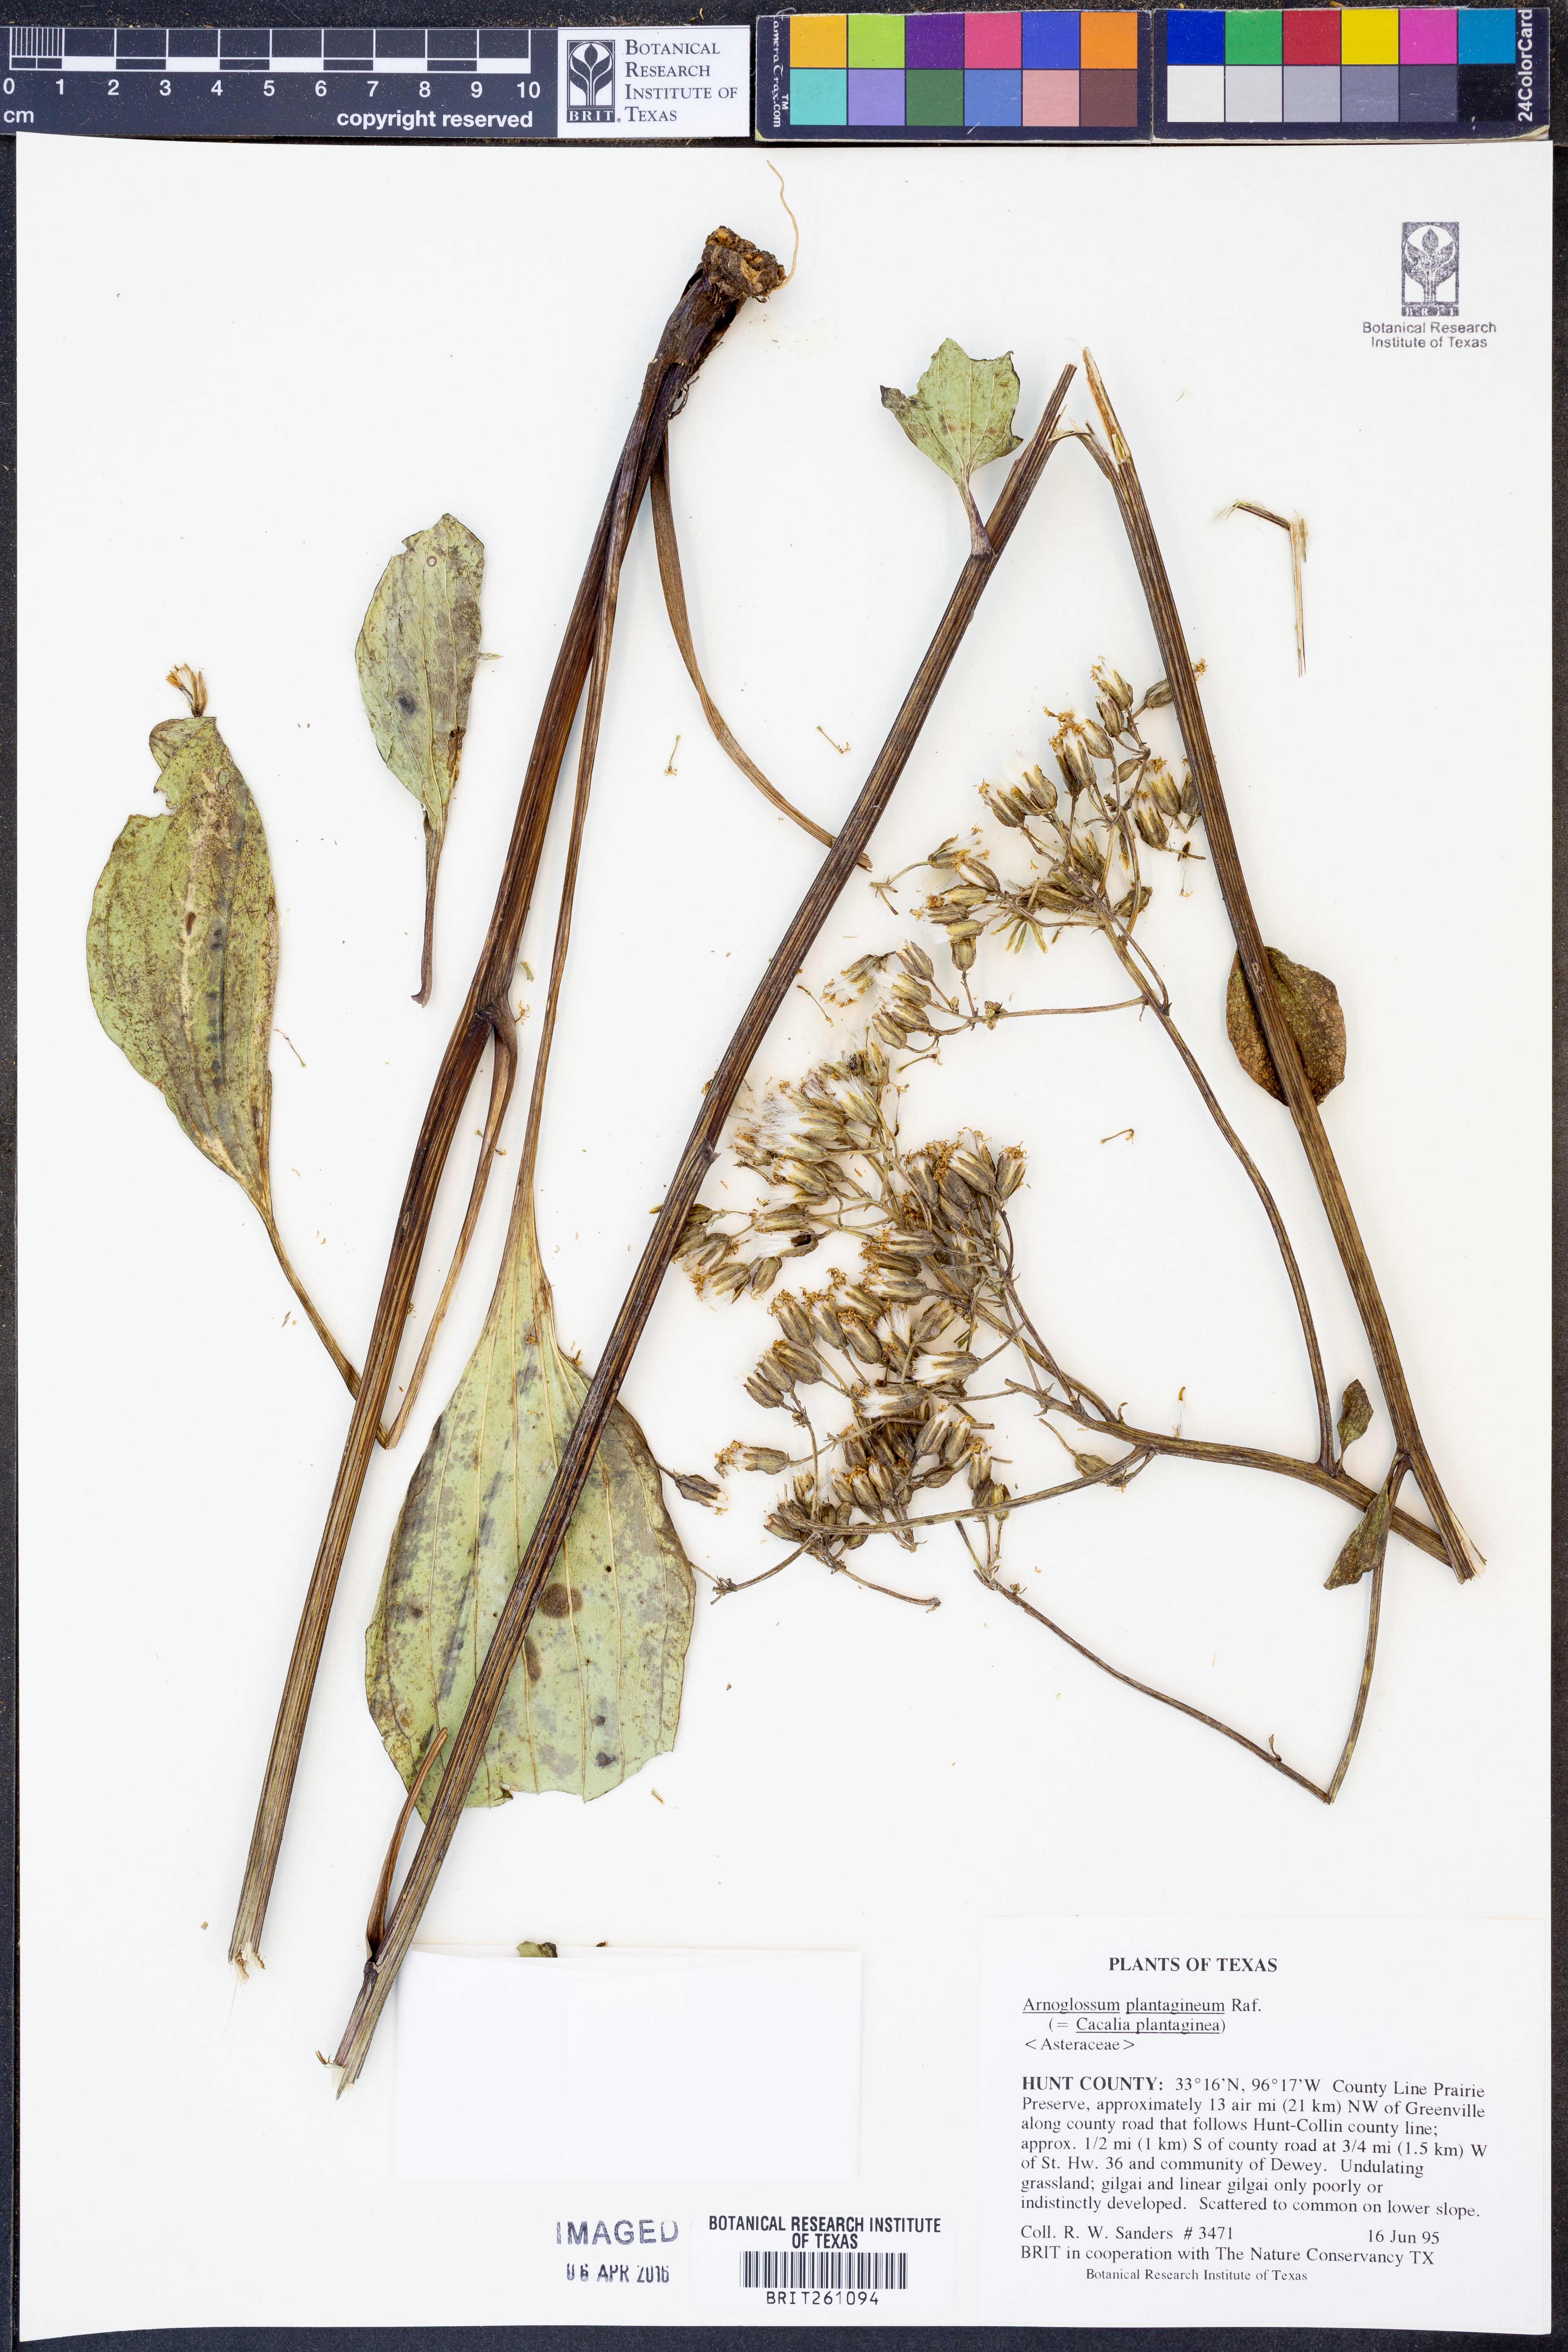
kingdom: Plantae
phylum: Tracheophyta
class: Magnoliopsida
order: Asterales
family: Asteraceae
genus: Arnoglossum
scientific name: Arnoglossum plantagineum
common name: Groove-stemmed indian-plantain
